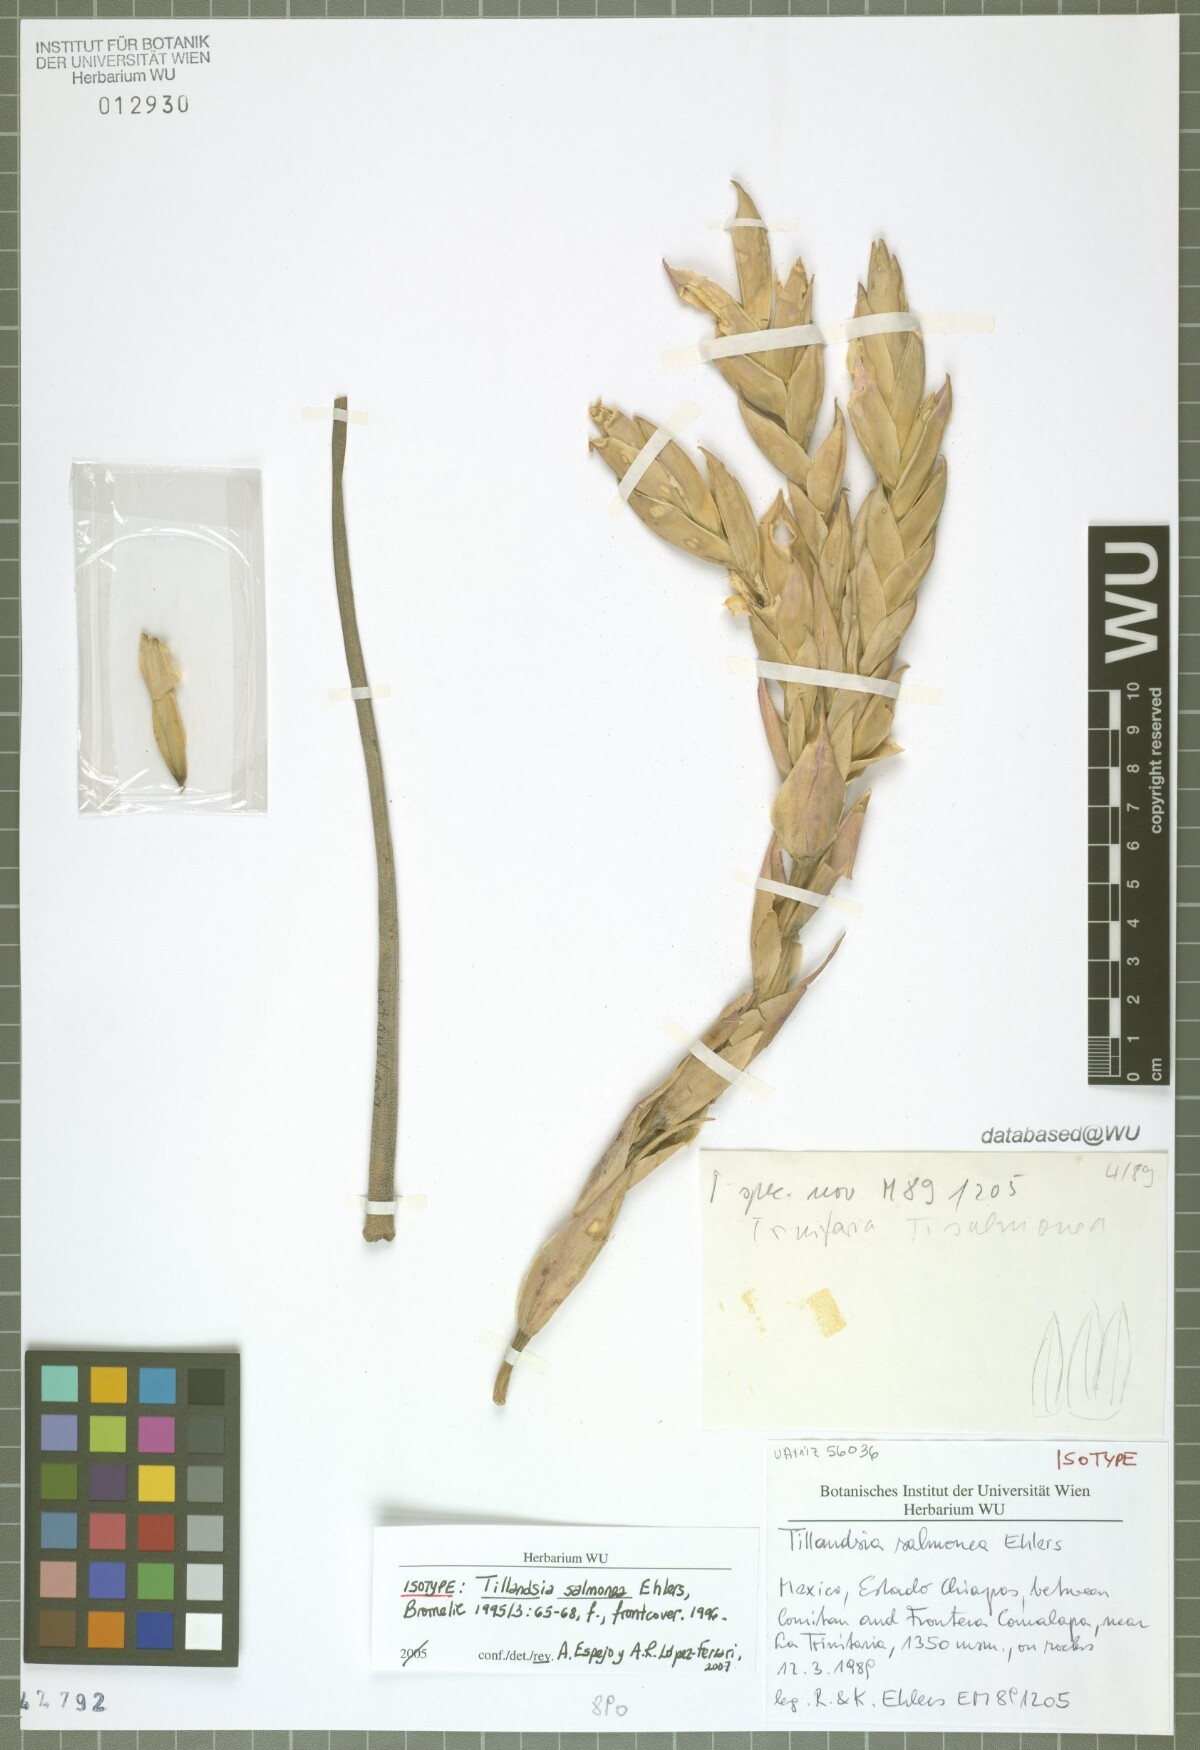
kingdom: Plantae
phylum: Tracheophyta
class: Liliopsida
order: Poales
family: Bromeliaceae
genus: Tillandsia
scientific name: Tillandsia salmonea
